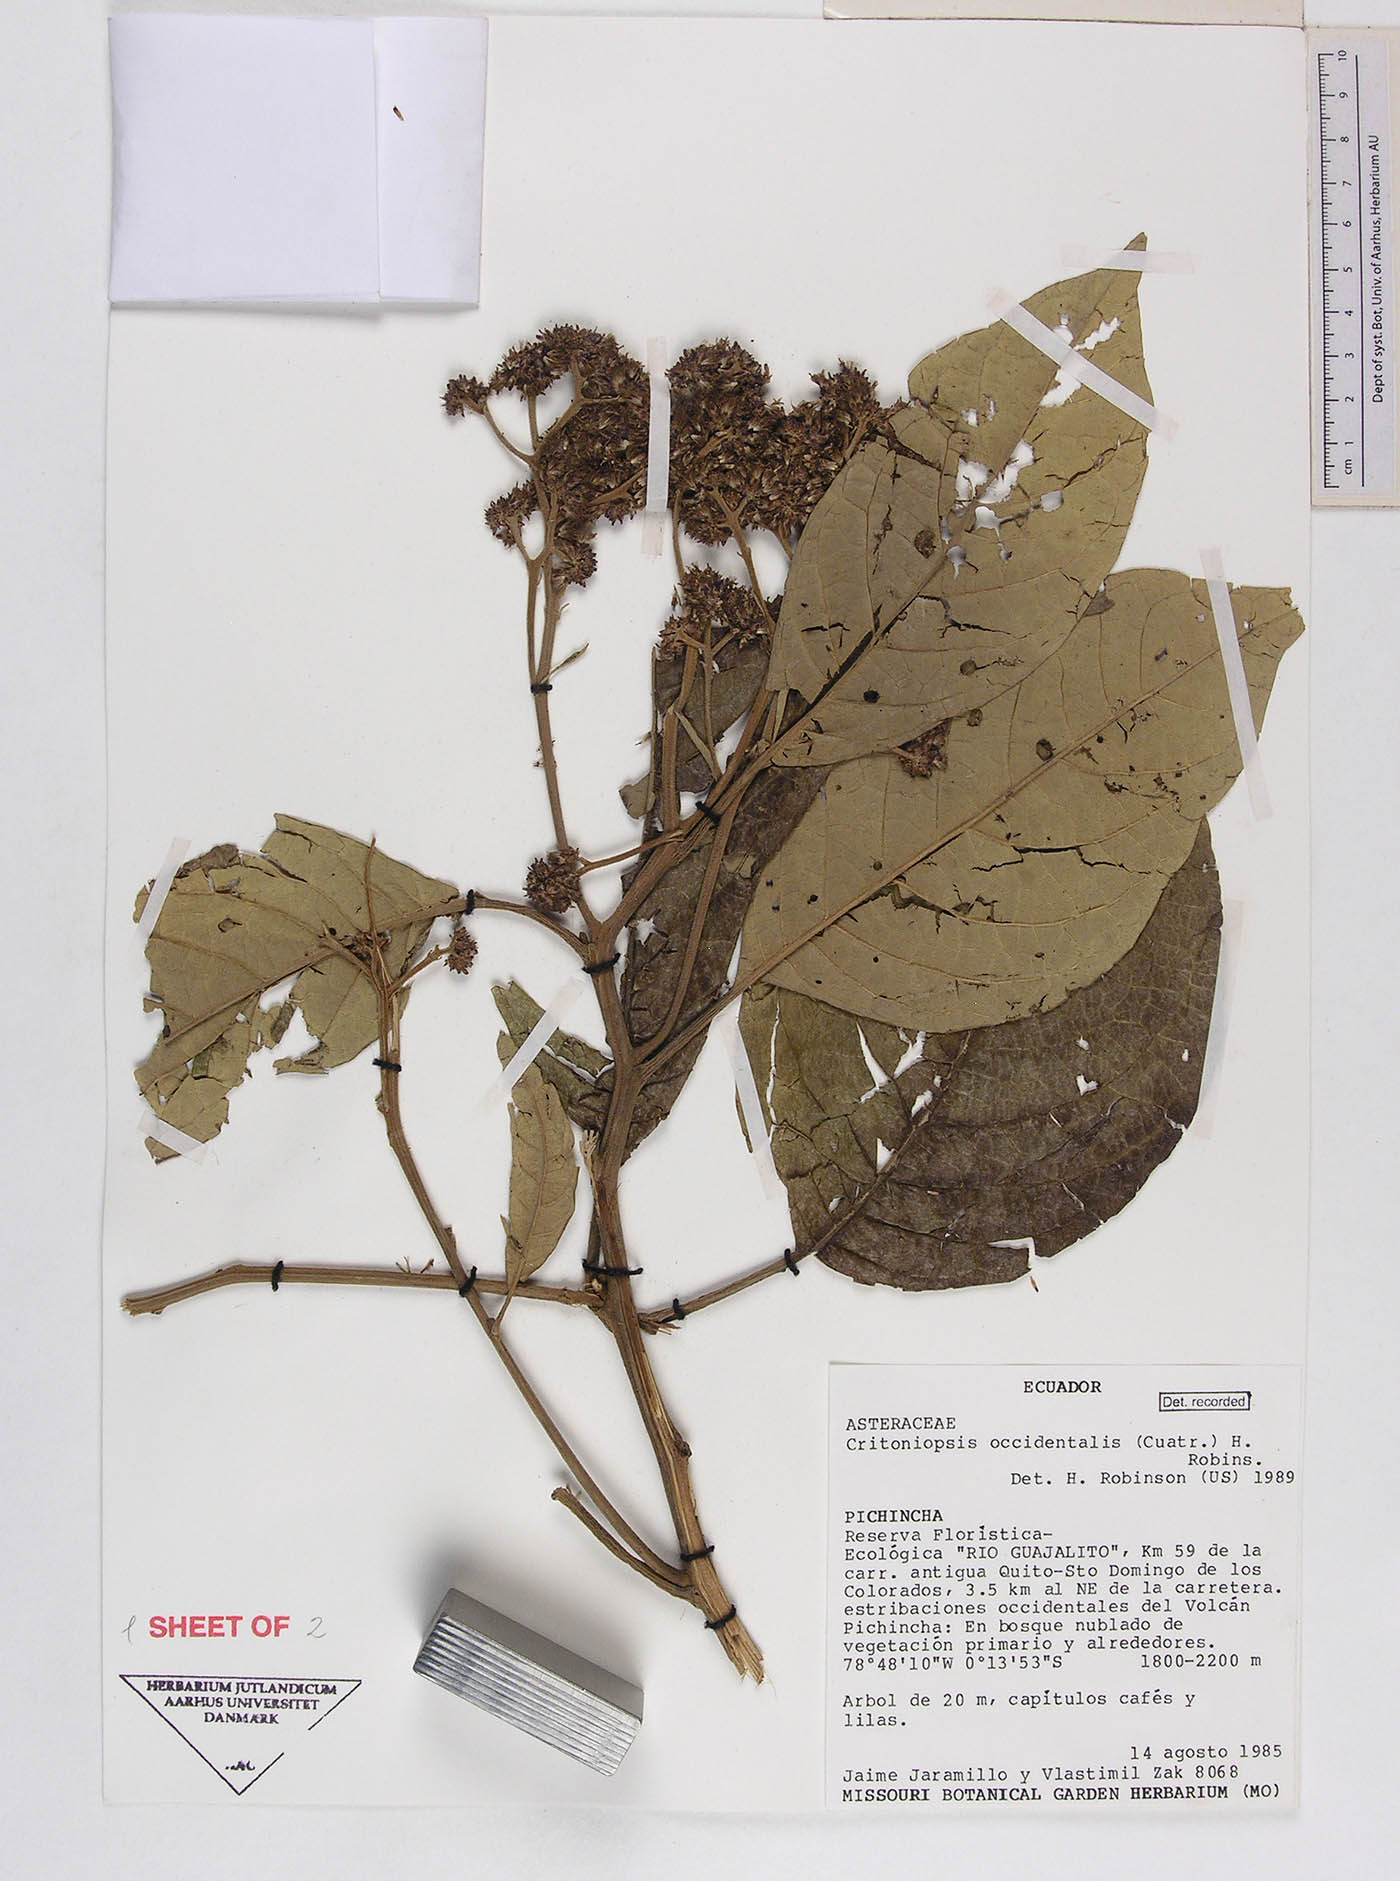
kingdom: Plantae
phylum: Tracheophyta
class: Magnoliopsida
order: Asterales
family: Asteraceae
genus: Critoniopsis
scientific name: Critoniopsis occidentalis
